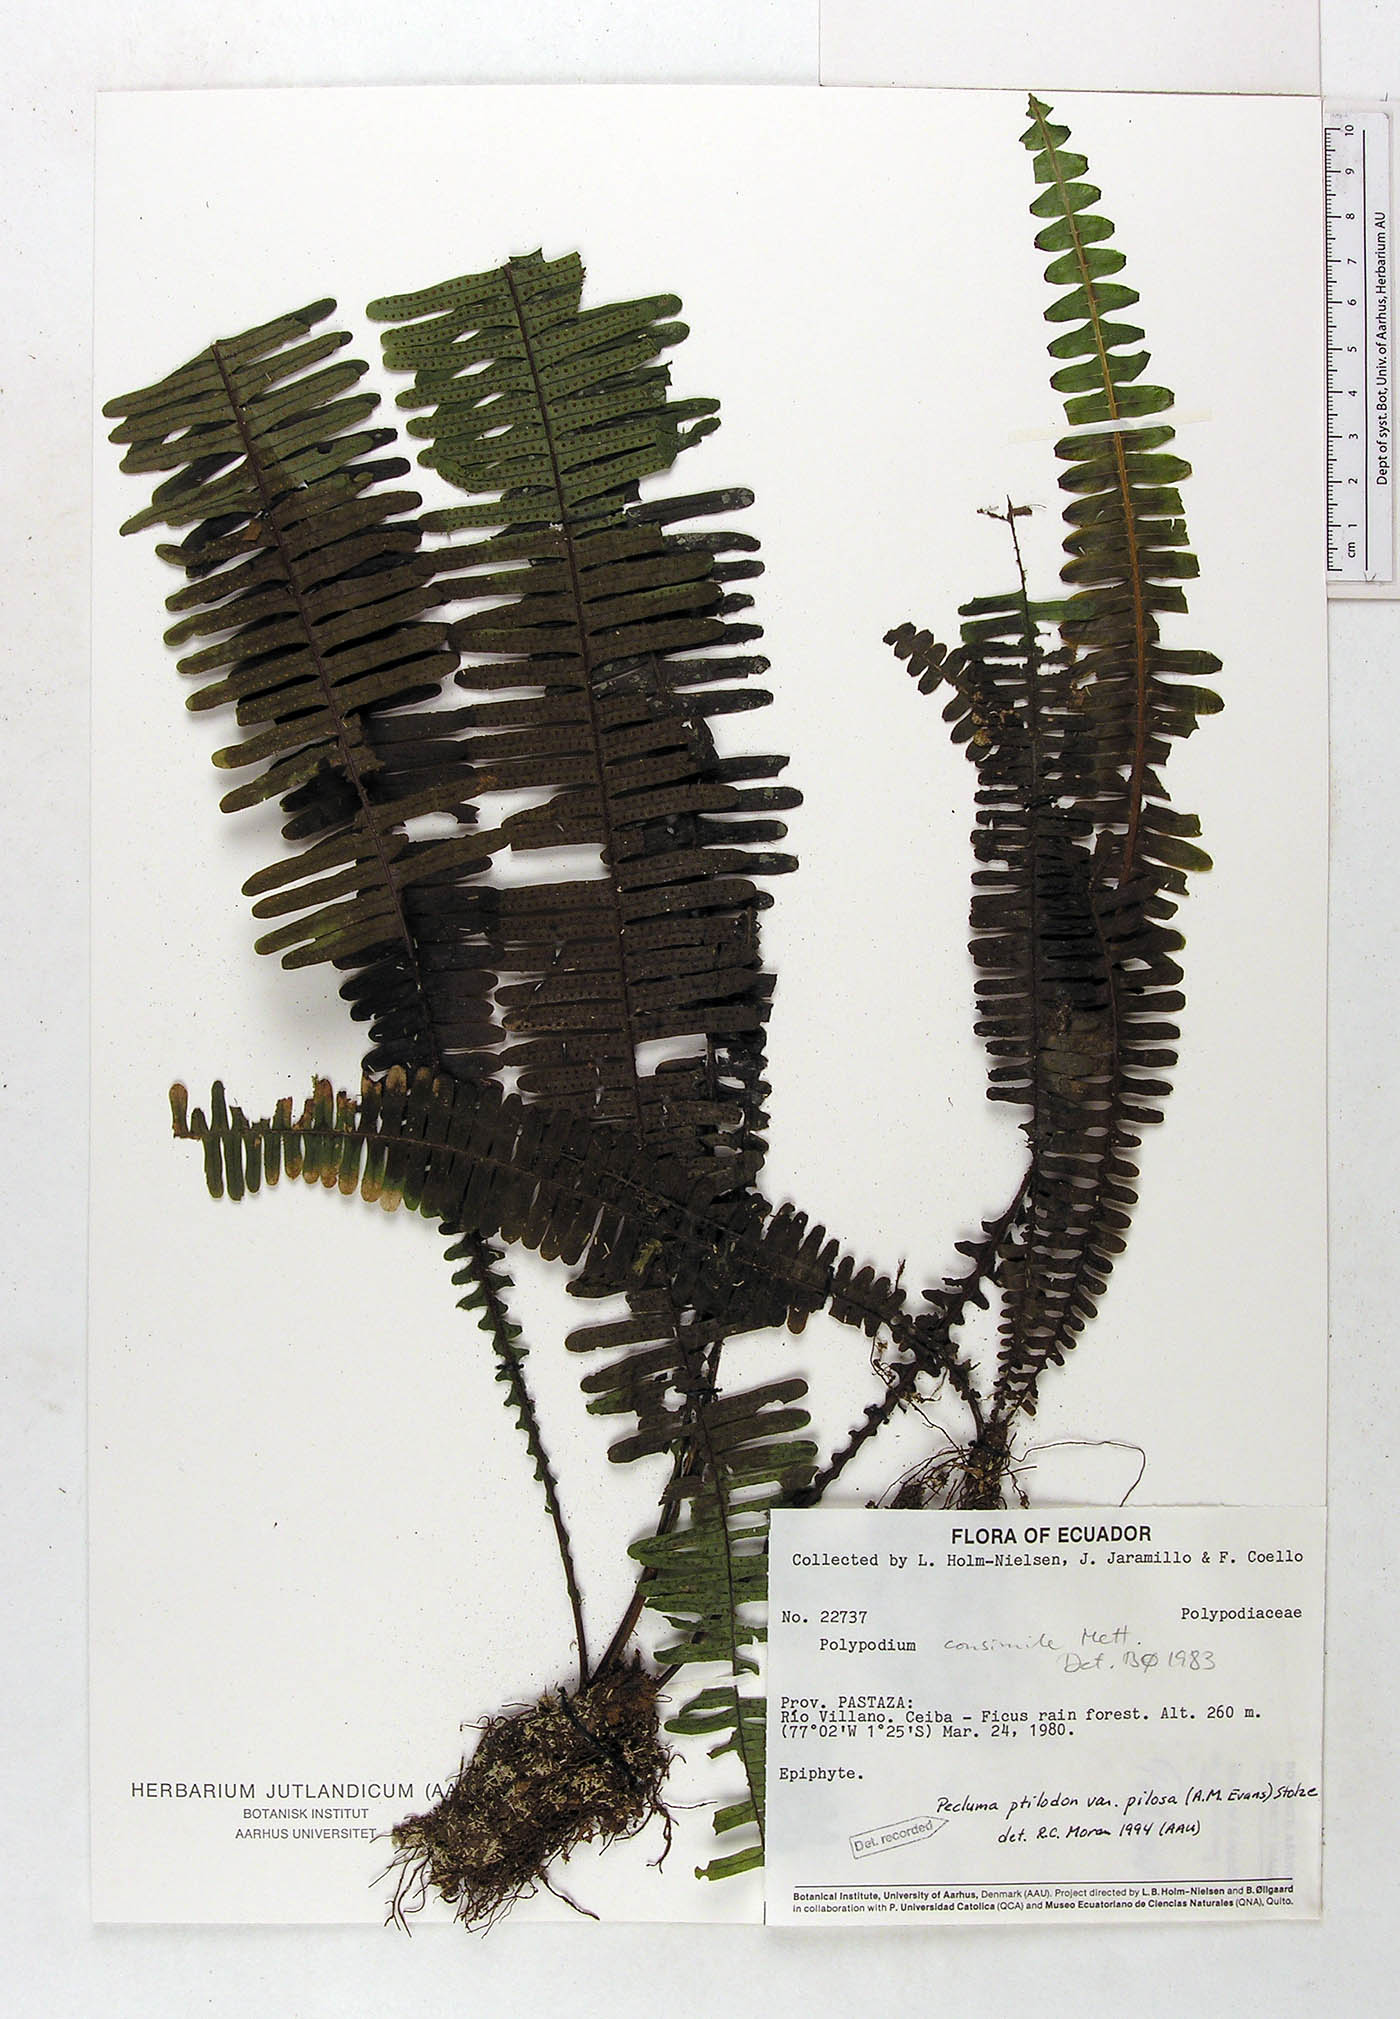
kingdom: Plantae
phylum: Tracheophyta
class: Polypodiopsida
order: Polypodiales
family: Polypodiaceae
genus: Pecluma
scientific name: Pecluma ptilotos
